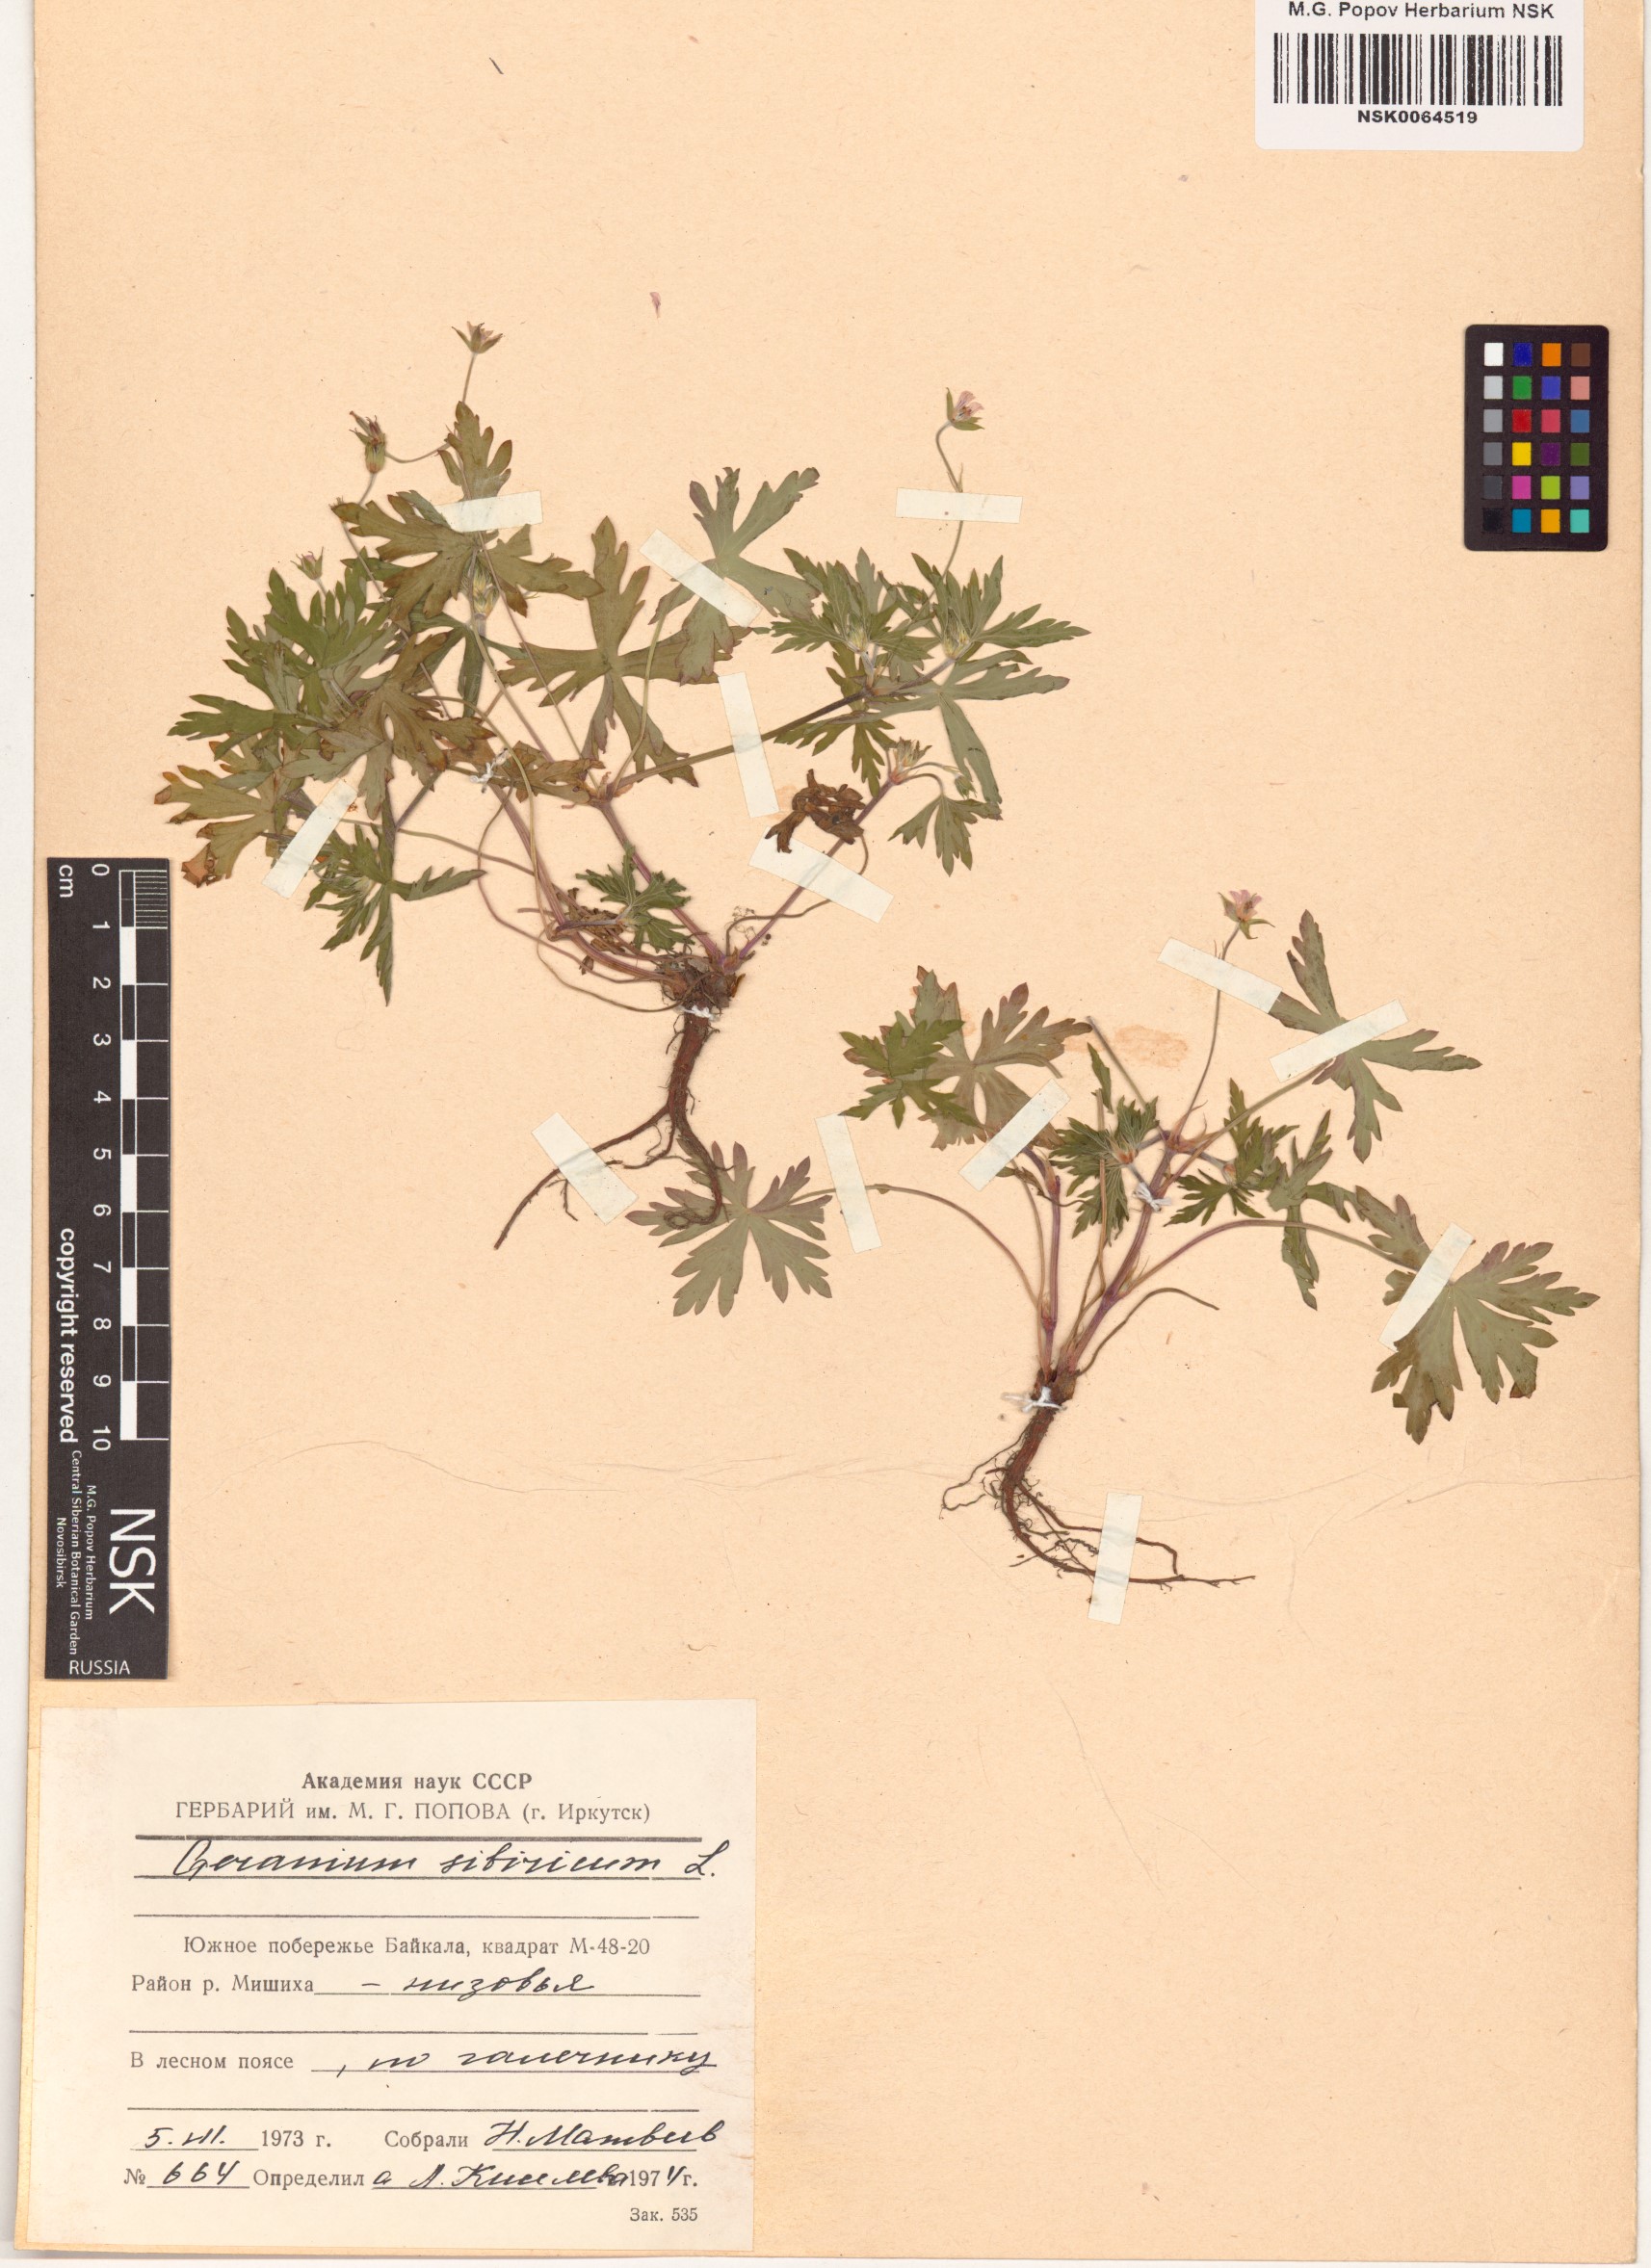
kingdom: Plantae
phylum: Tracheophyta
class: Magnoliopsida
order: Geraniales
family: Geraniaceae
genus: Geranium
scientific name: Geranium sibiricum
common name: Siberian crane's-bill
